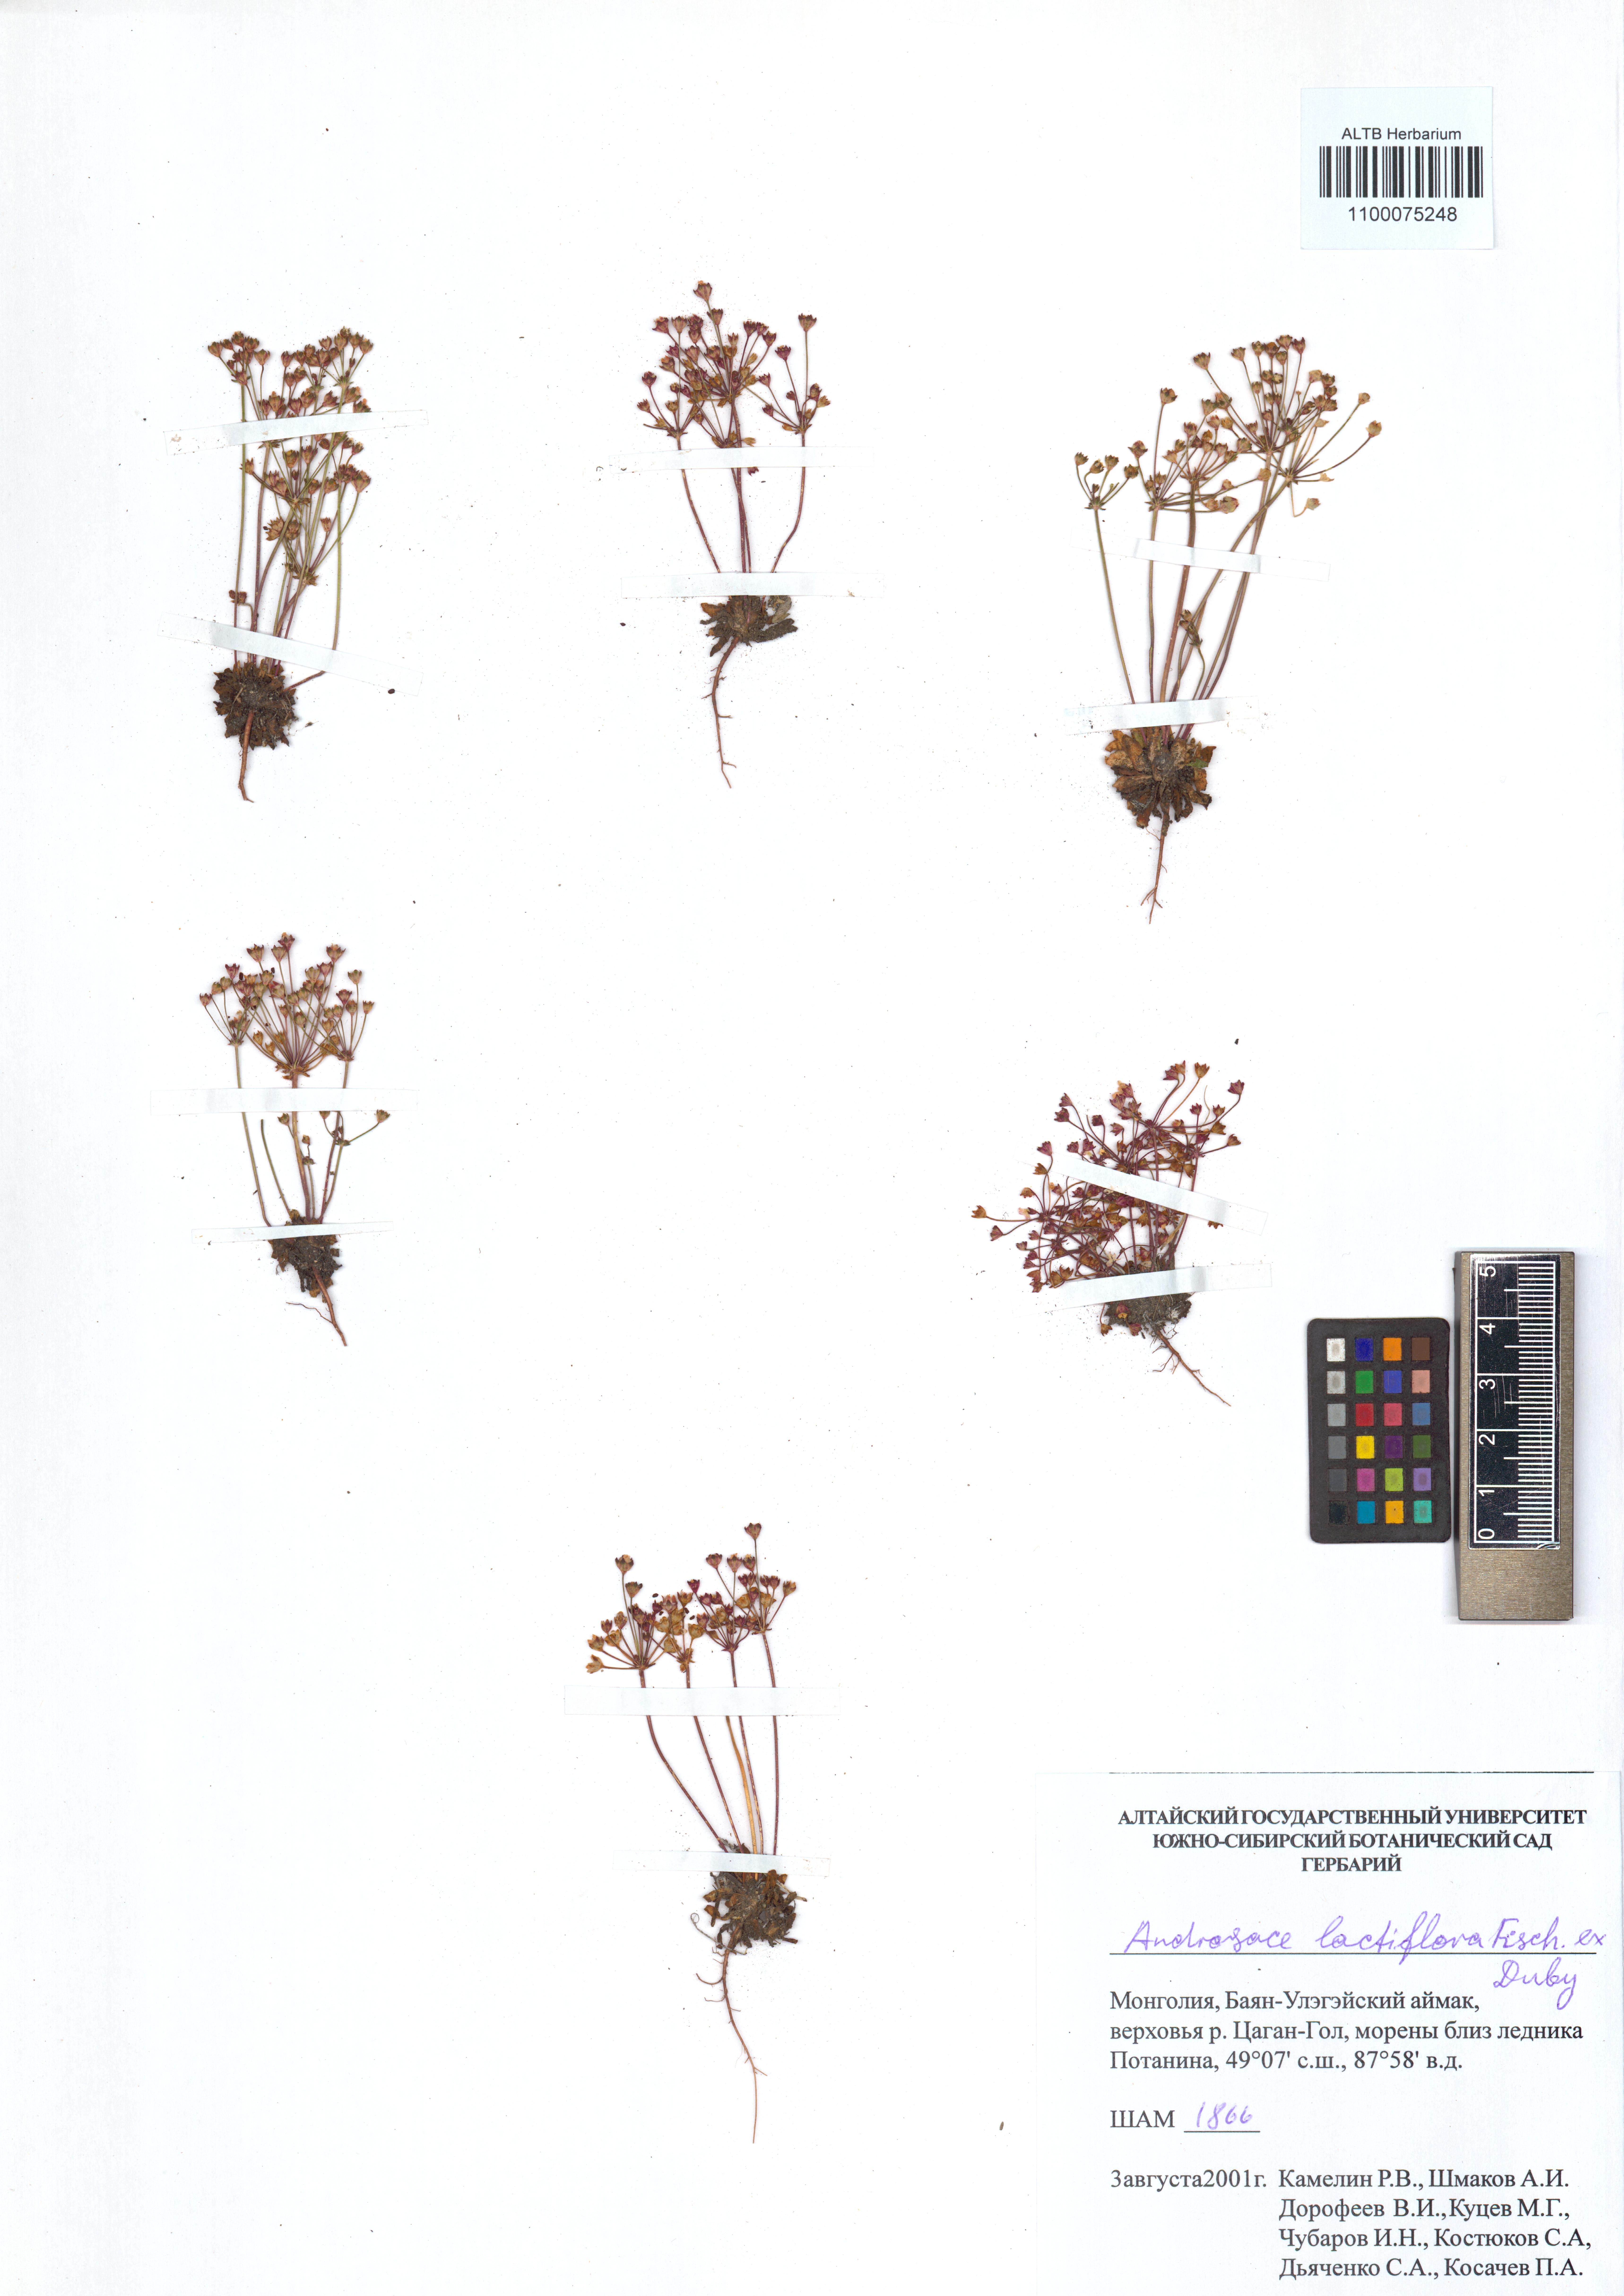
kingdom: Plantae
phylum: Tracheophyta
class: Magnoliopsida
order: Ericales
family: Primulaceae
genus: Androsace
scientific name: Androsace lactiflora
